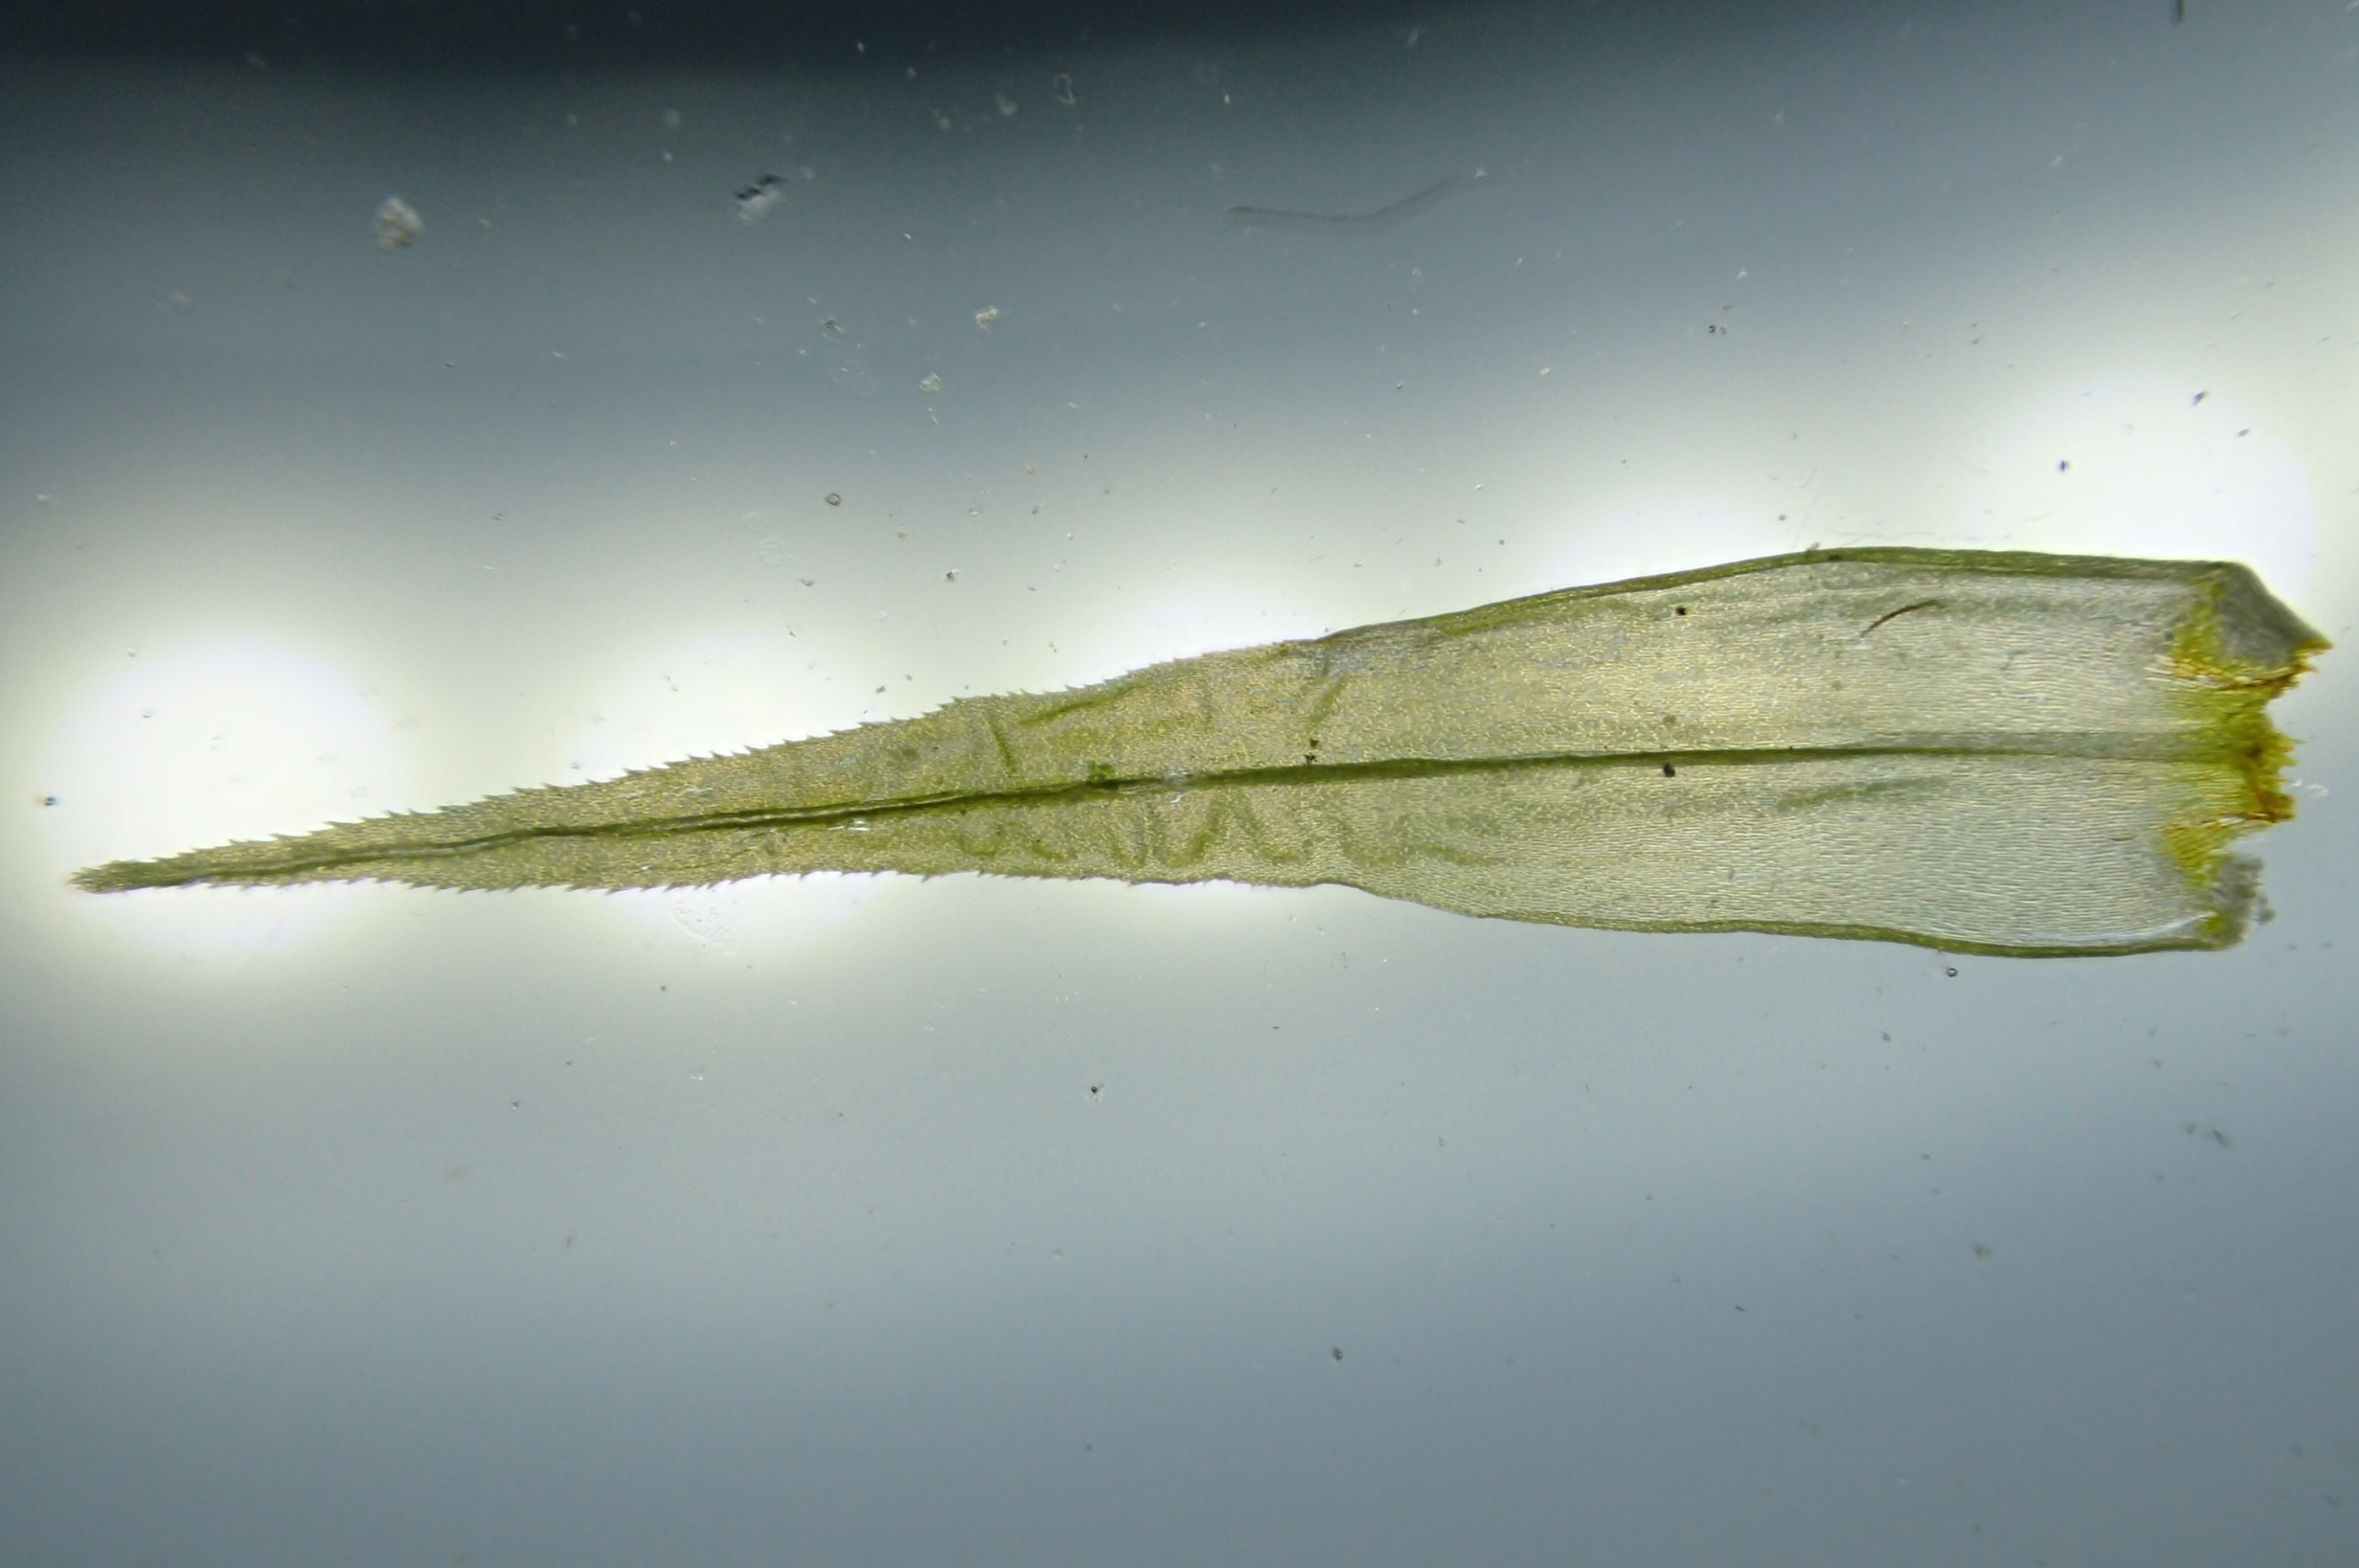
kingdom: Plantae
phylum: Bryophyta
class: Bryopsida
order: Dicranales
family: Dicranaceae
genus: Dicranum
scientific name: Dicranum polysetum
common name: Bølgebladet kløvtand
